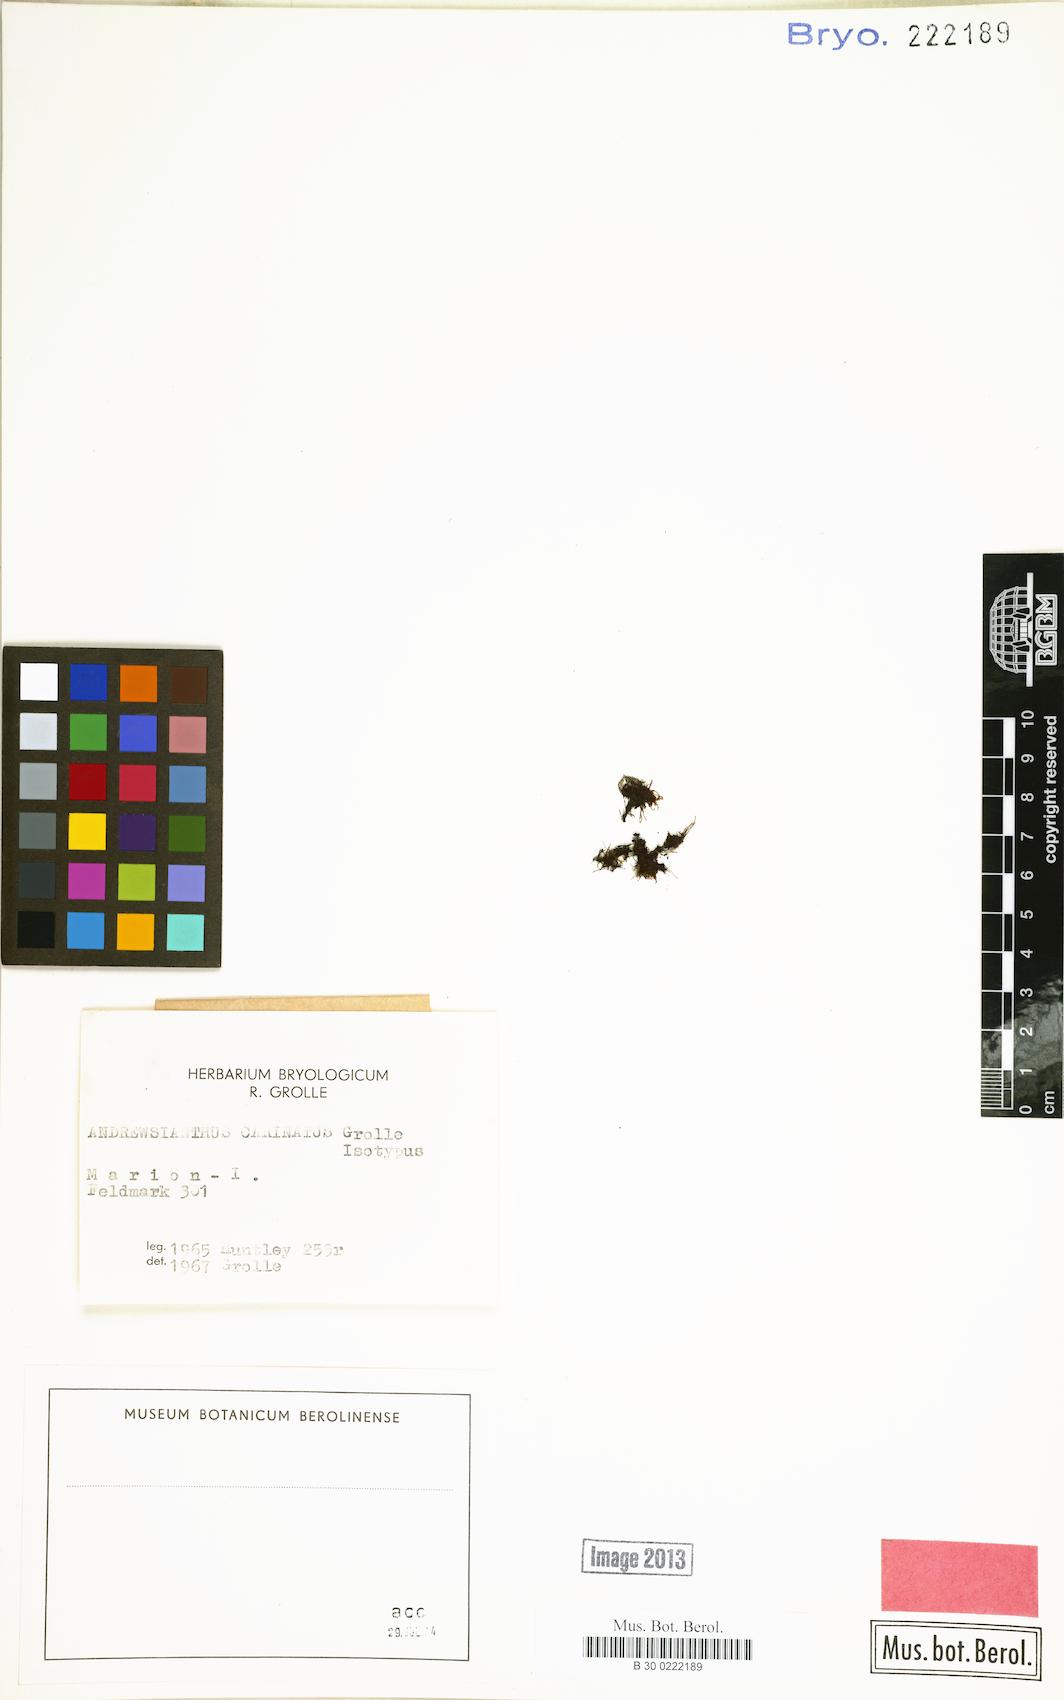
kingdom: Plantae
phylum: Marchantiophyta
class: Jungermanniopsida
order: Jungermanniales
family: Lophoziaceae
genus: Andrewsianthus
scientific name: Andrewsianthus carinatus
